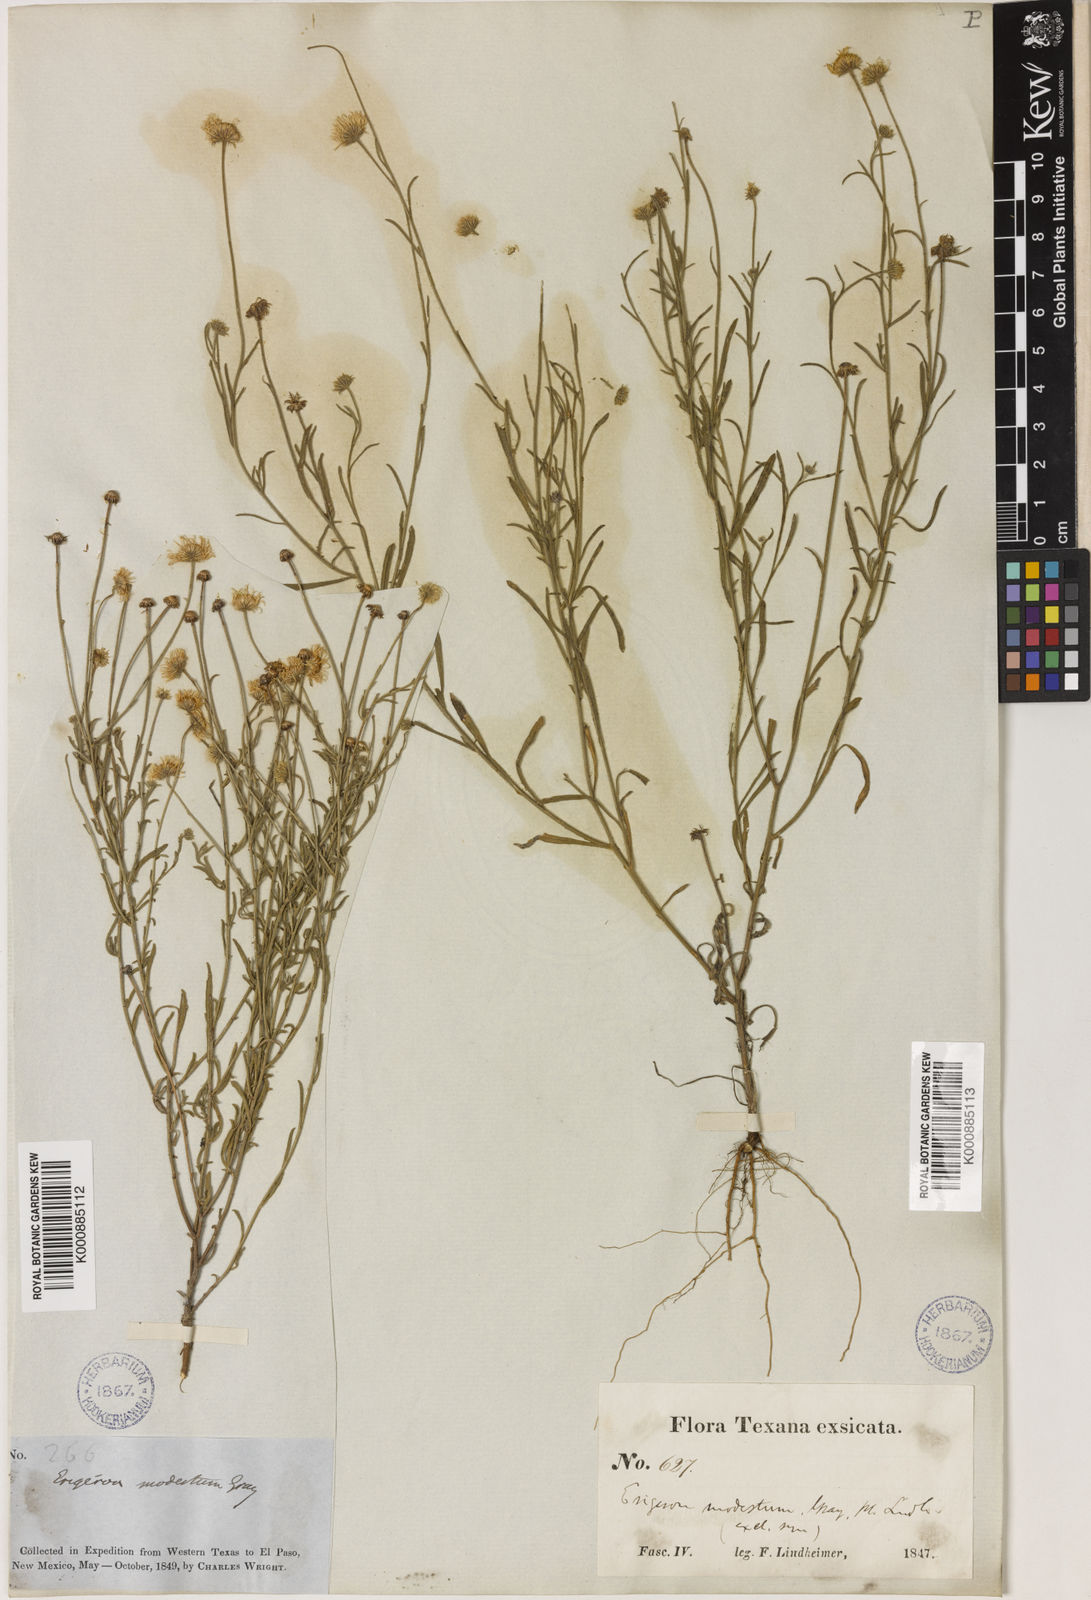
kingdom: Plantae
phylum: Tracheophyta
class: Magnoliopsida
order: Asterales
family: Asteraceae
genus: Erigeron
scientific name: Erigeron
